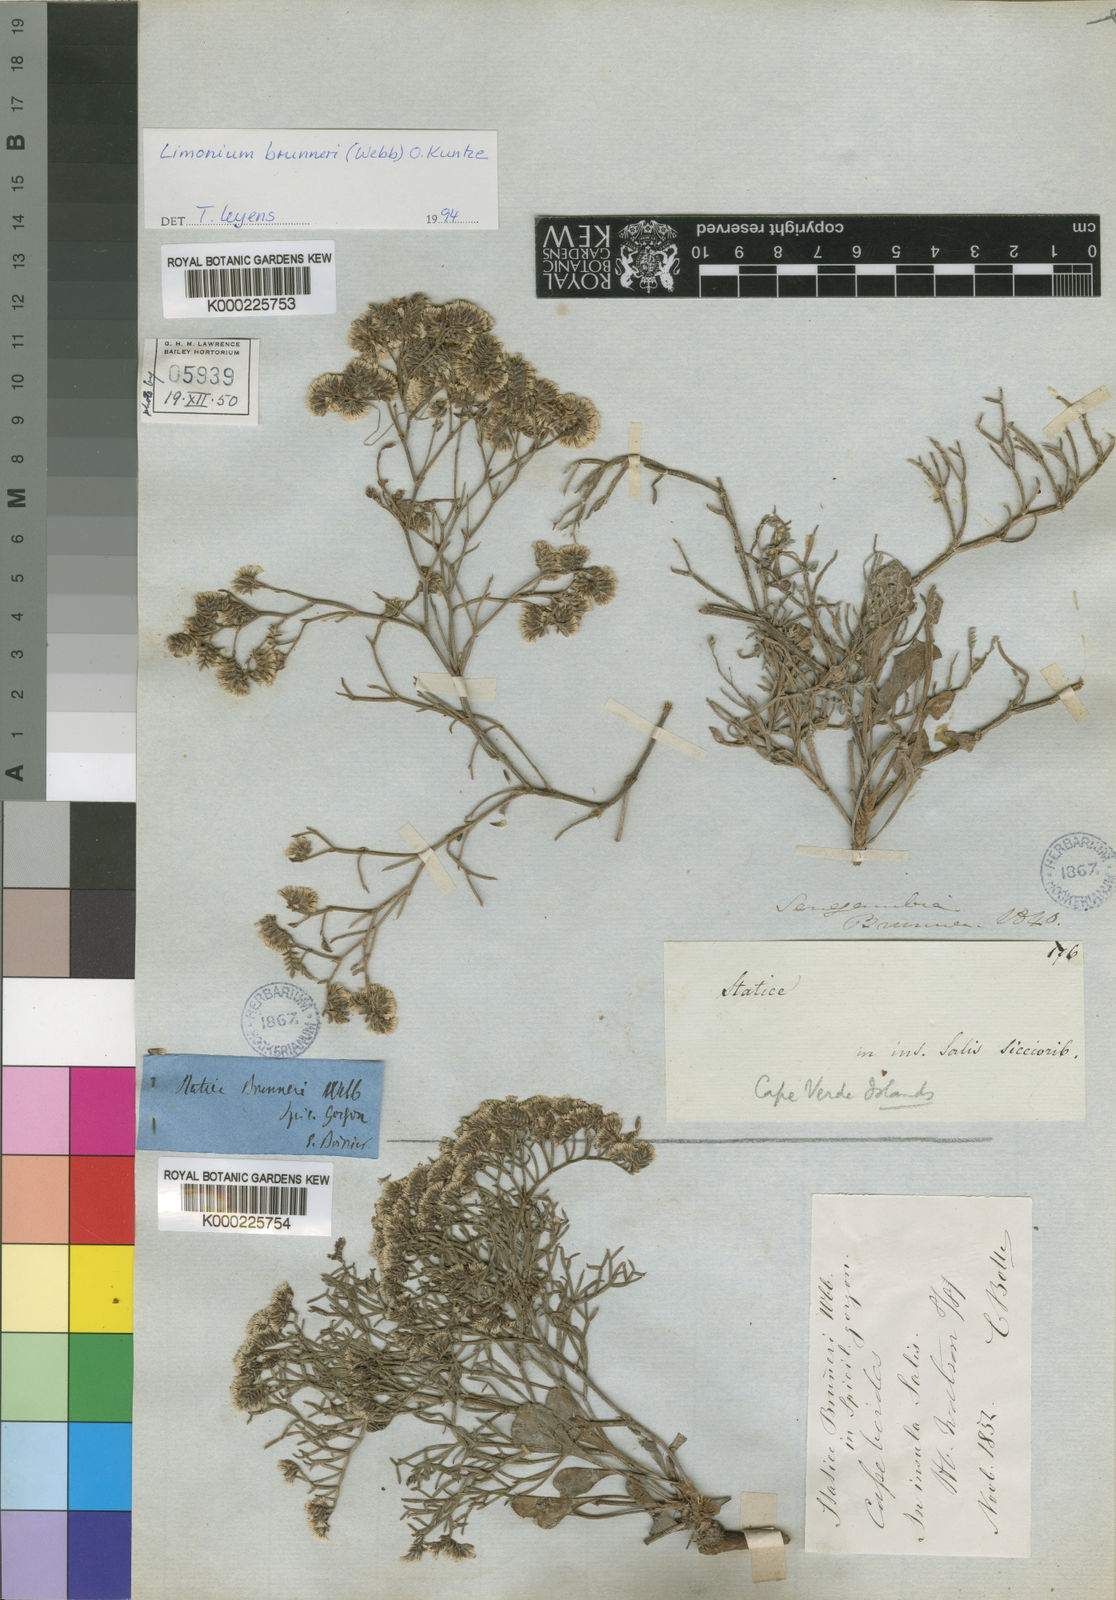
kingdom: Plantae
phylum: Tracheophyta
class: Magnoliopsida
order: Caryophyllales
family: Plumbaginaceae
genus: Limonium
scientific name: Limonium braunii
